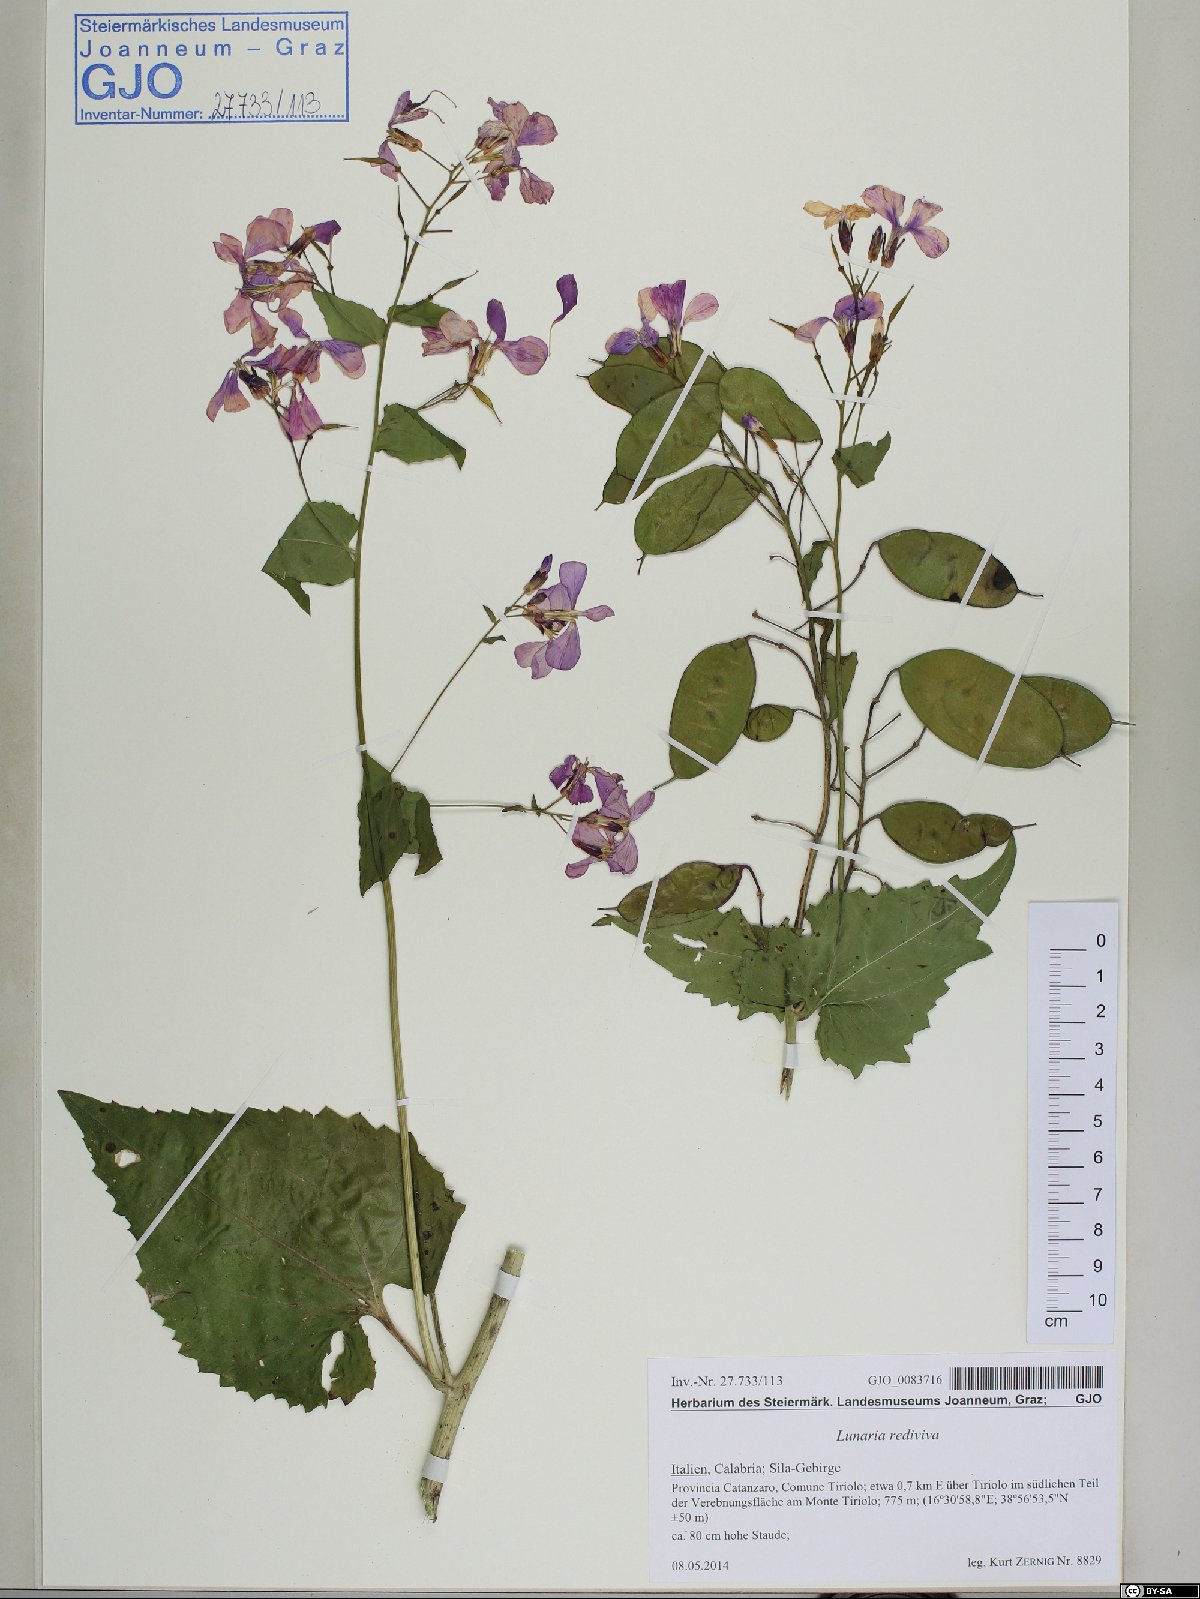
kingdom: Plantae
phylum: Tracheophyta
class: Magnoliopsida
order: Brassicales
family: Brassicaceae
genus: Lunaria
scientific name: Lunaria rediviva
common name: Perennial honesty
